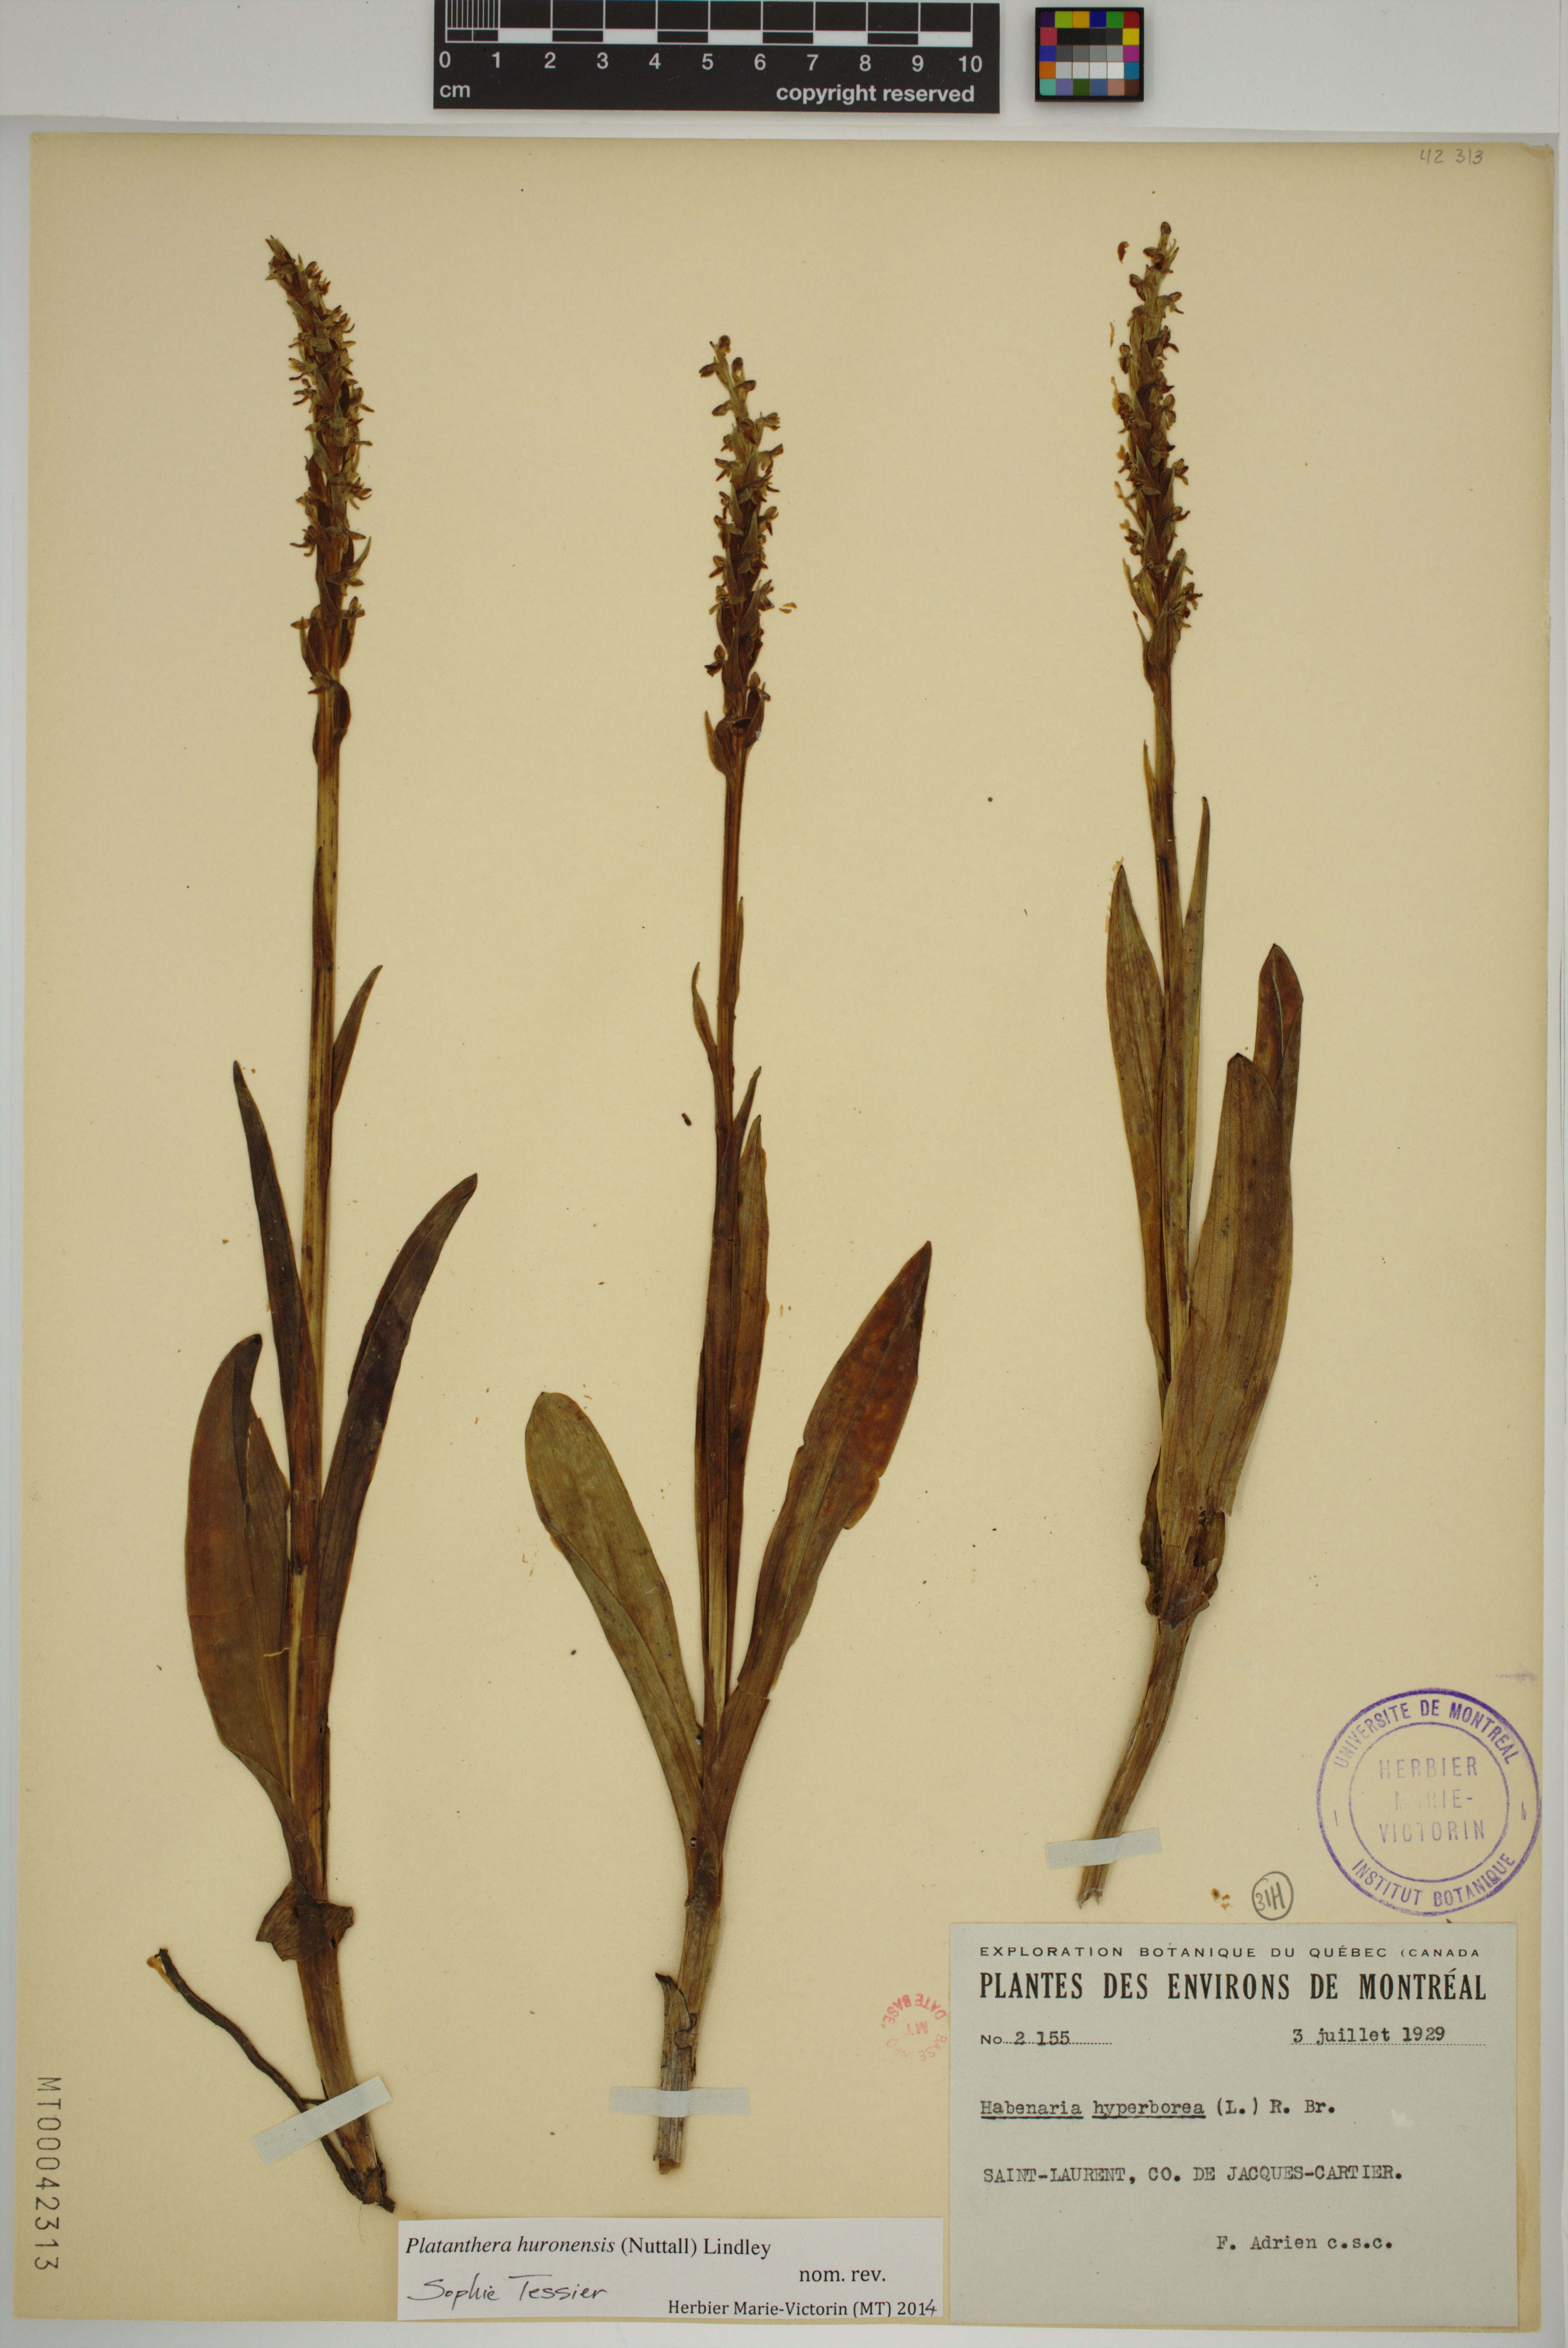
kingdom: Plantae
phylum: Tracheophyta
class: Liliopsida
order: Asparagales
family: Orchidaceae
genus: Platanthera
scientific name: Platanthera huronensis
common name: Fragrant green orchid
